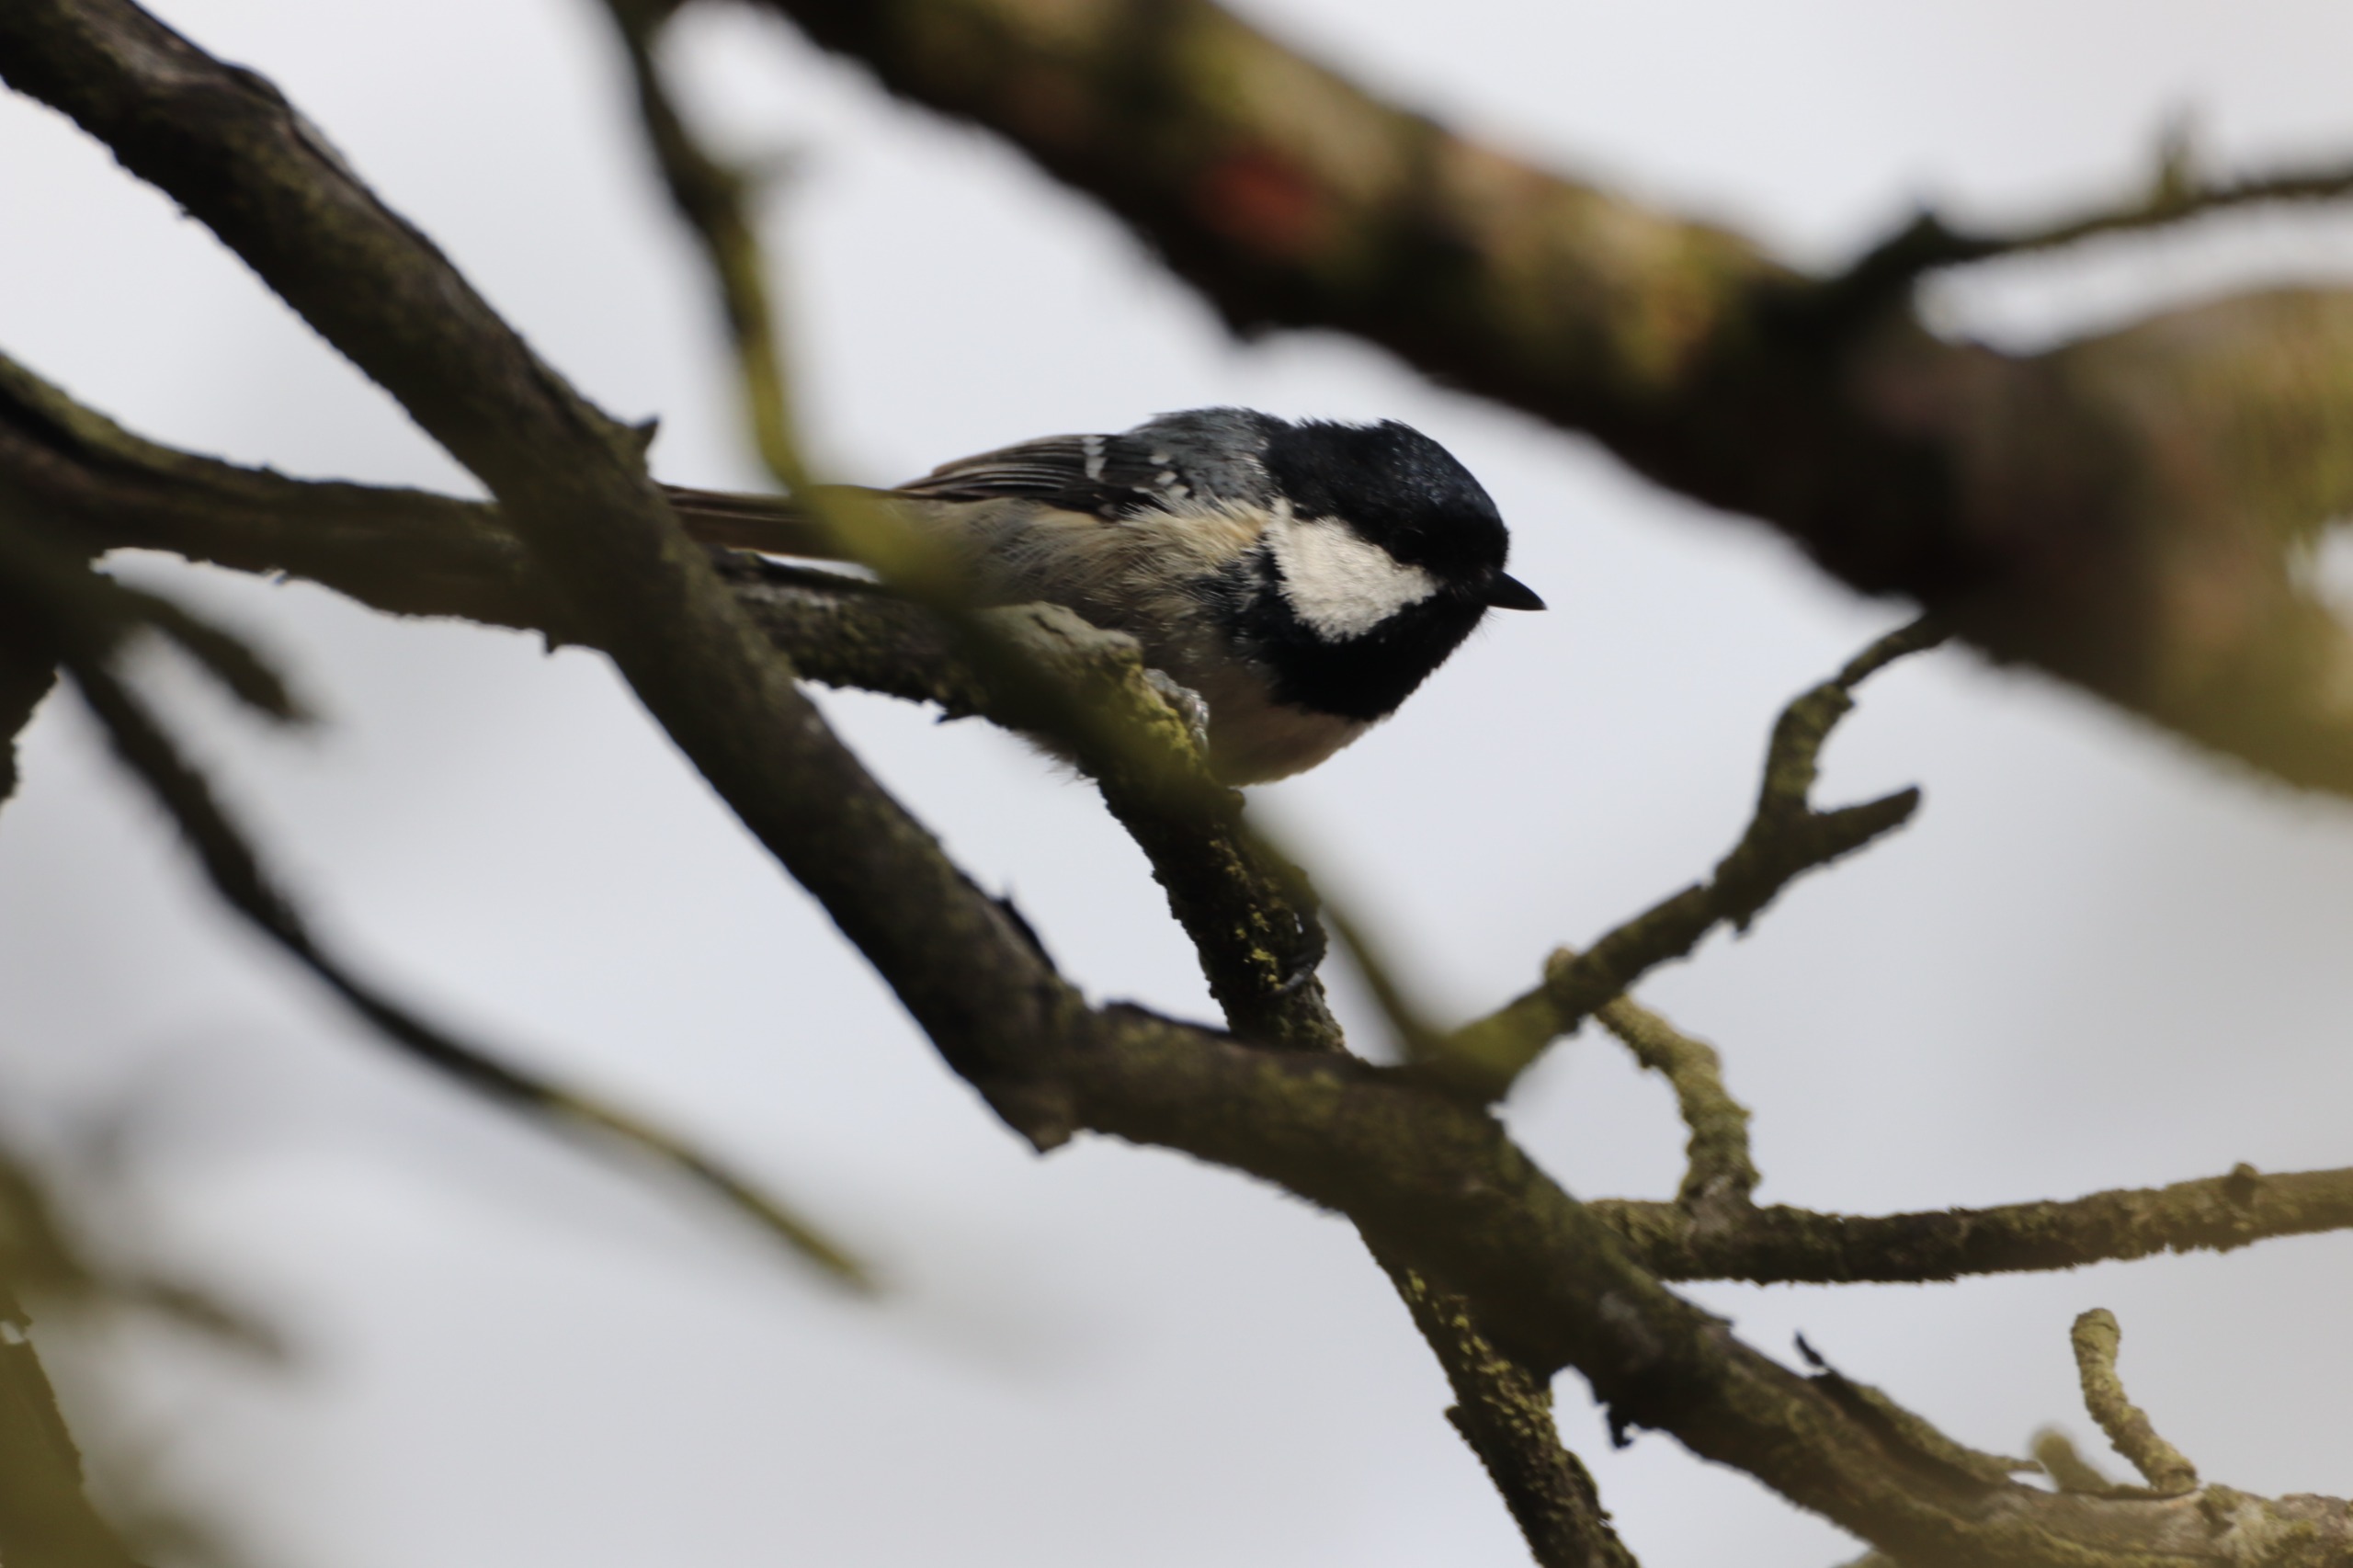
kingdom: Animalia
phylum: Chordata
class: Aves
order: Passeriformes
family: Paridae
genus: Periparus
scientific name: Periparus ater
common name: Sortmejse
